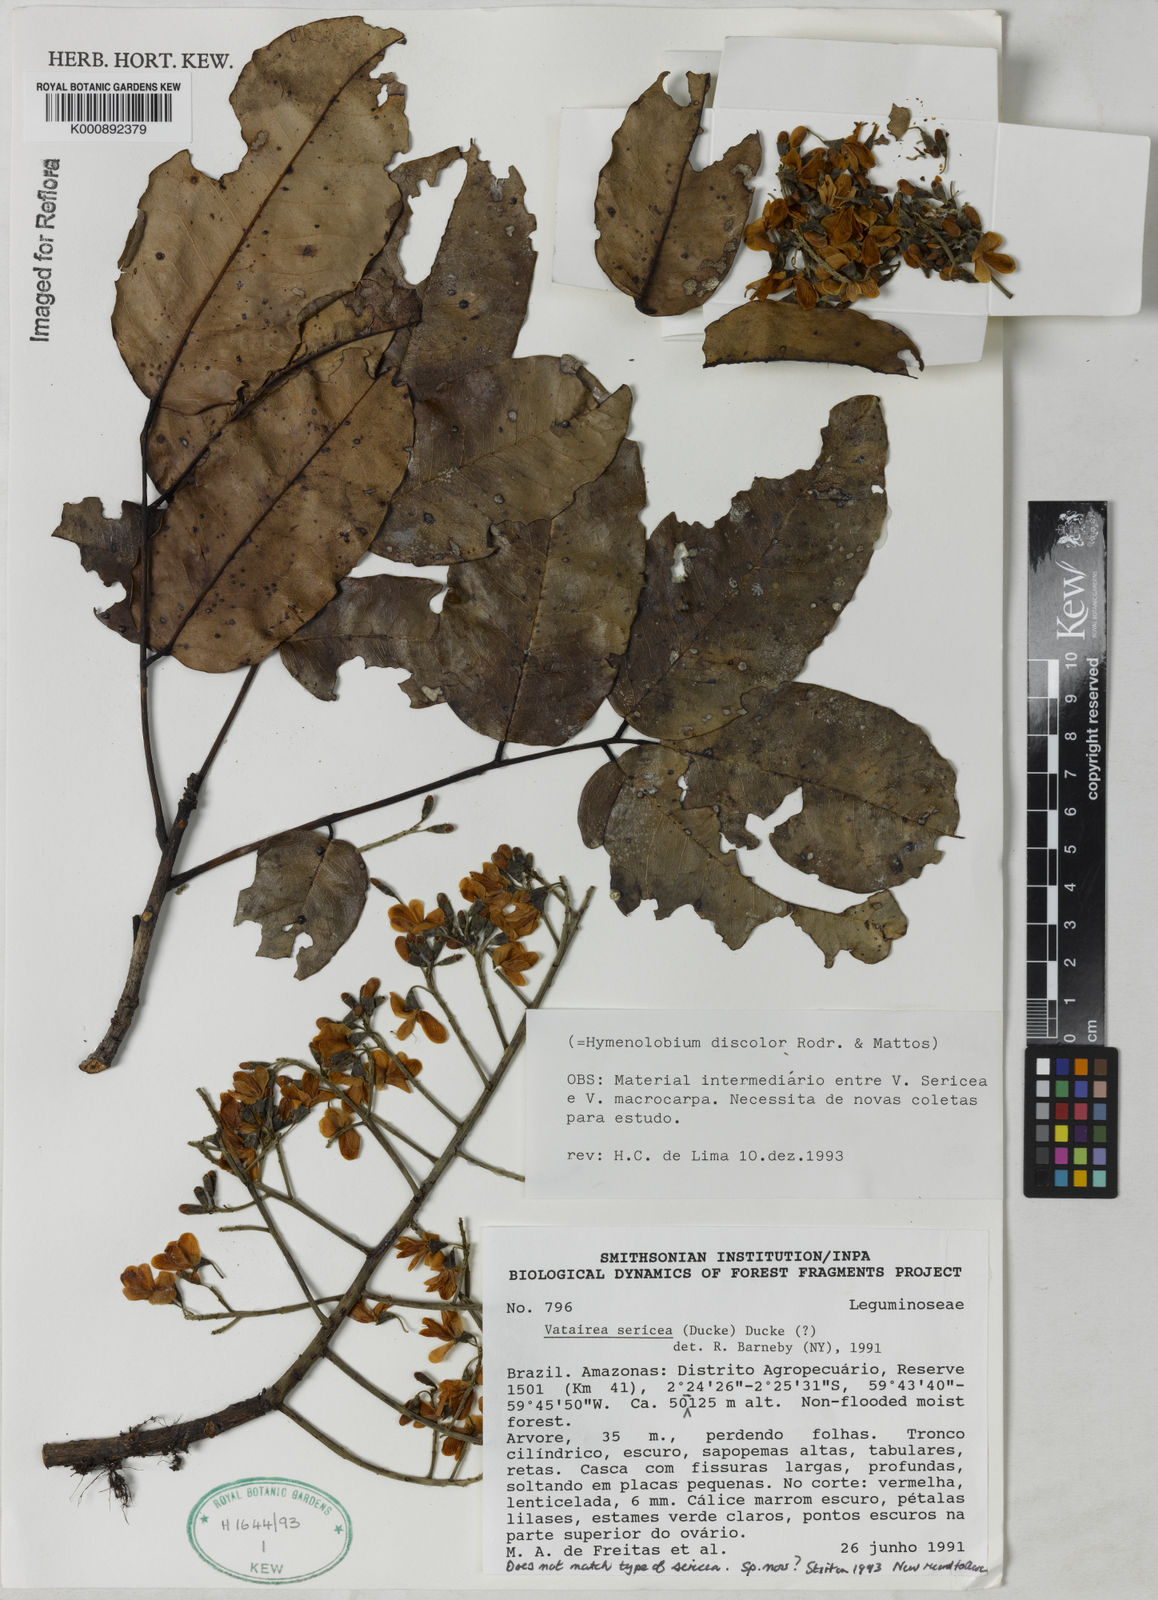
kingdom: Plantae
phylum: Tracheophyta
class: Magnoliopsida
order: Fabales
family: Fabaceae
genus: Vatairea
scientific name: Vatairea sericea
